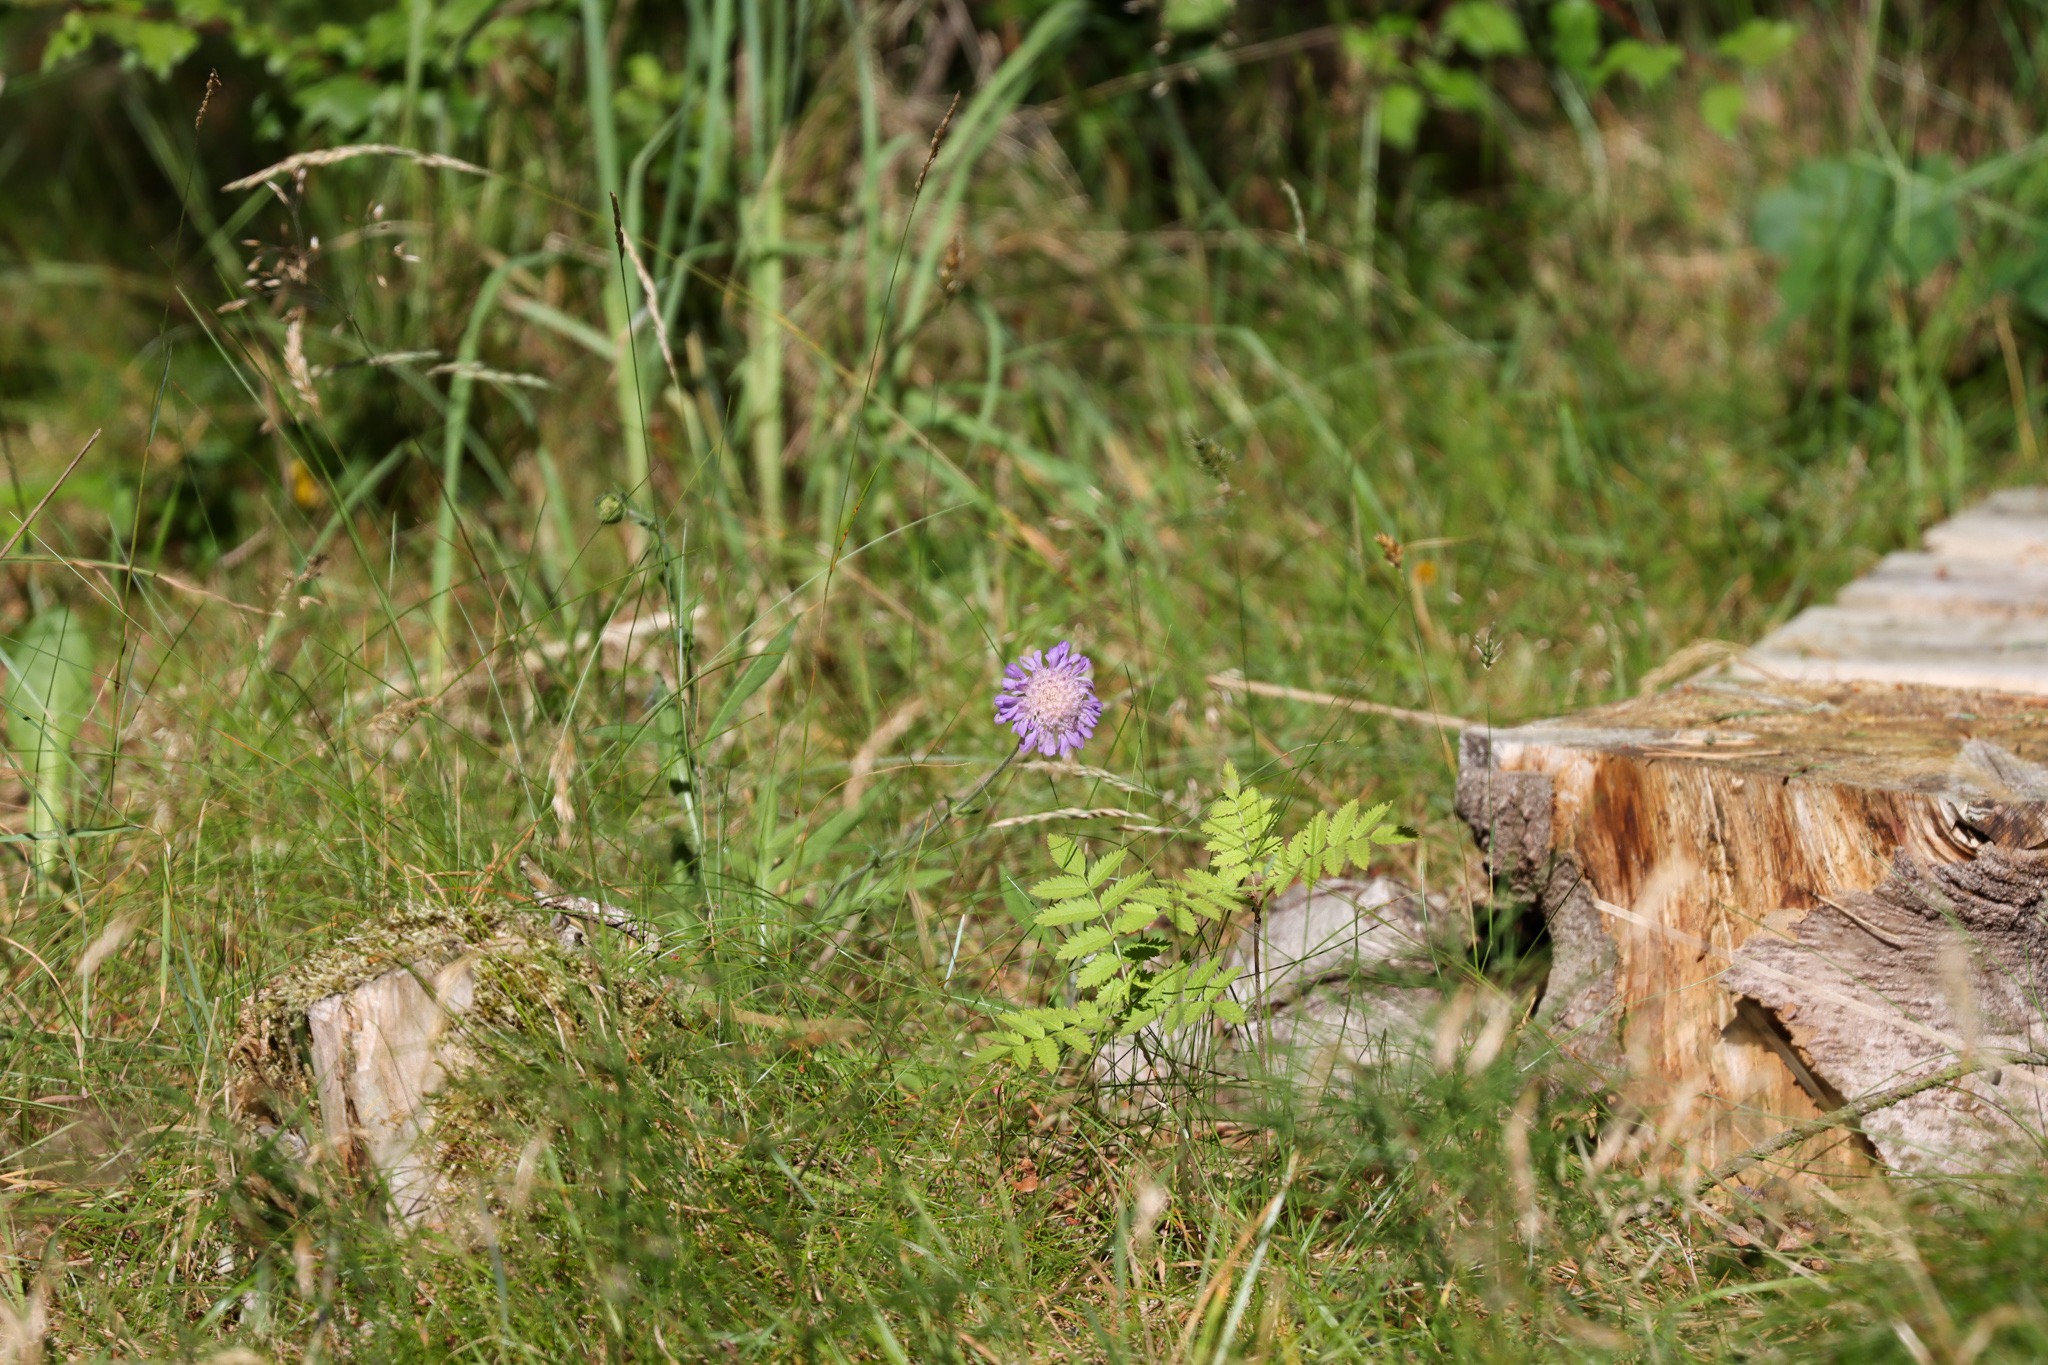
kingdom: Plantae
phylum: Tracheophyta
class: Magnoliopsida
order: Dipsacales
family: Caprifoliaceae
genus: Knautia
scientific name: Knautia arvensis
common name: Blåhat
